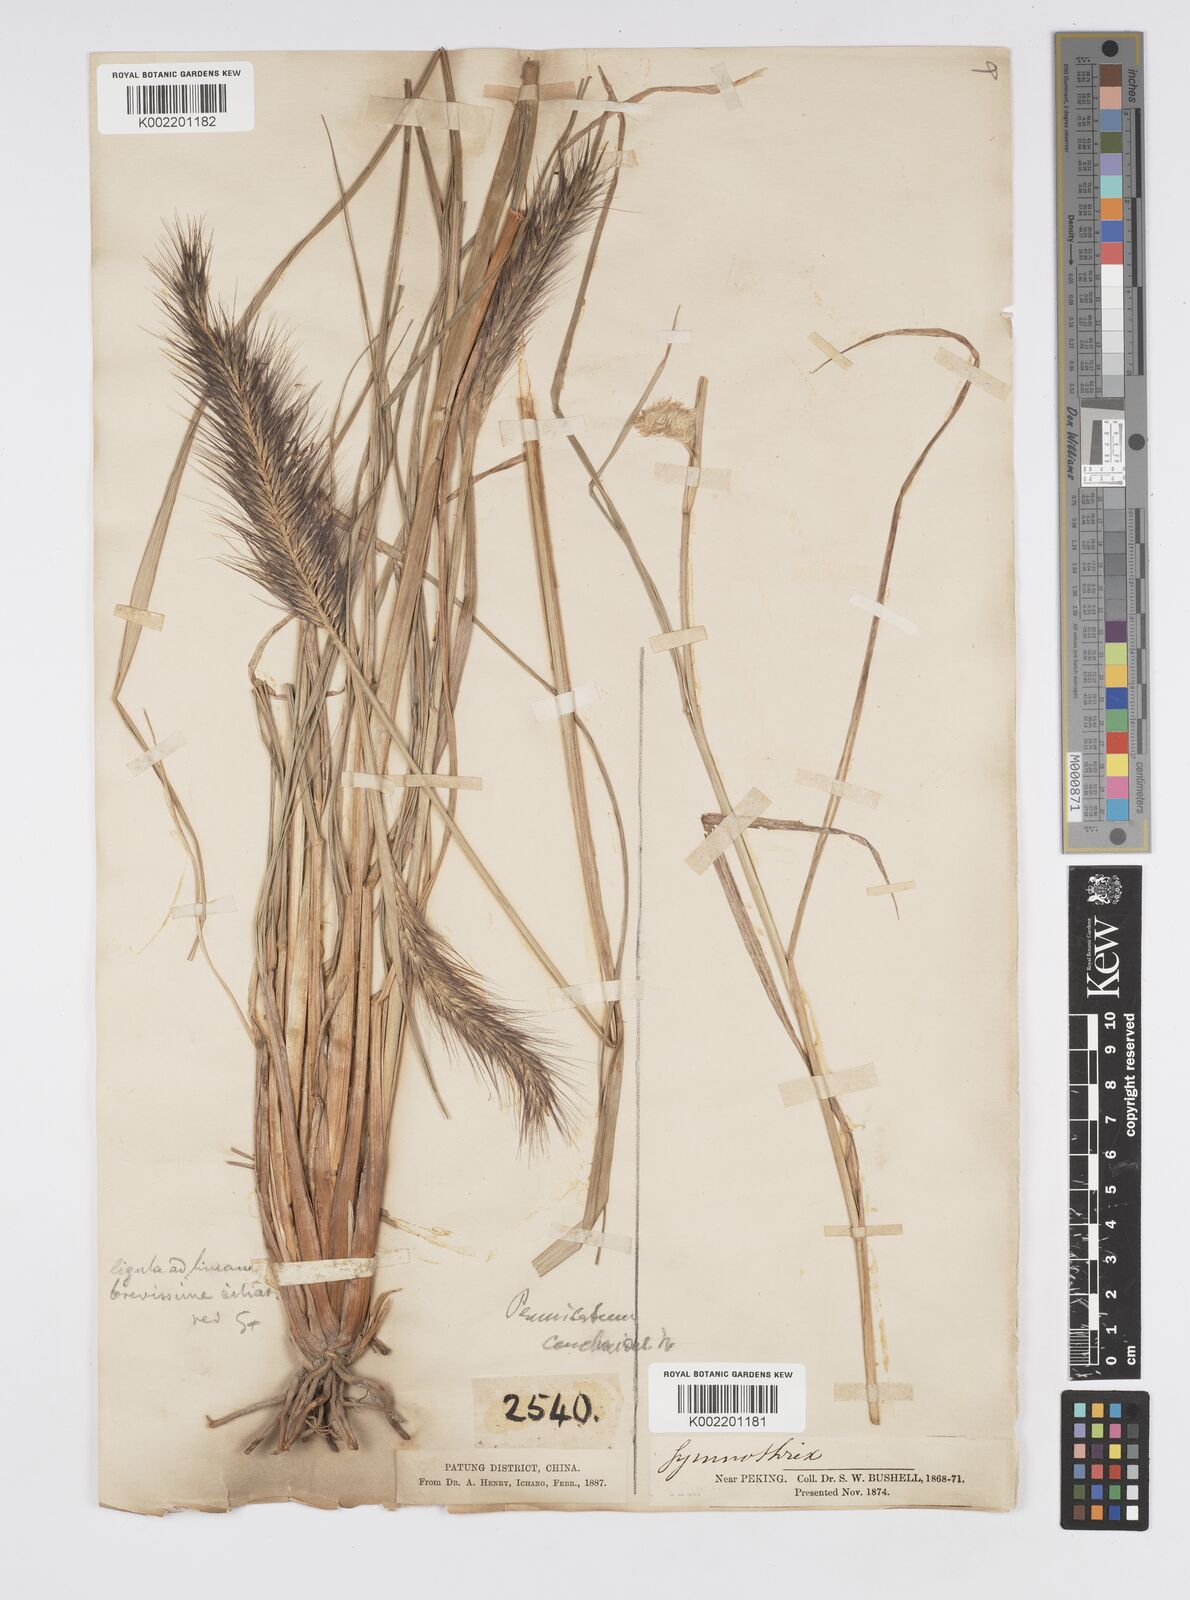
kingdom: Plantae
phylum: Tracheophyta
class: Liliopsida
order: Poales
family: Poaceae
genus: Cenchrus
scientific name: Cenchrus alopecuroides
